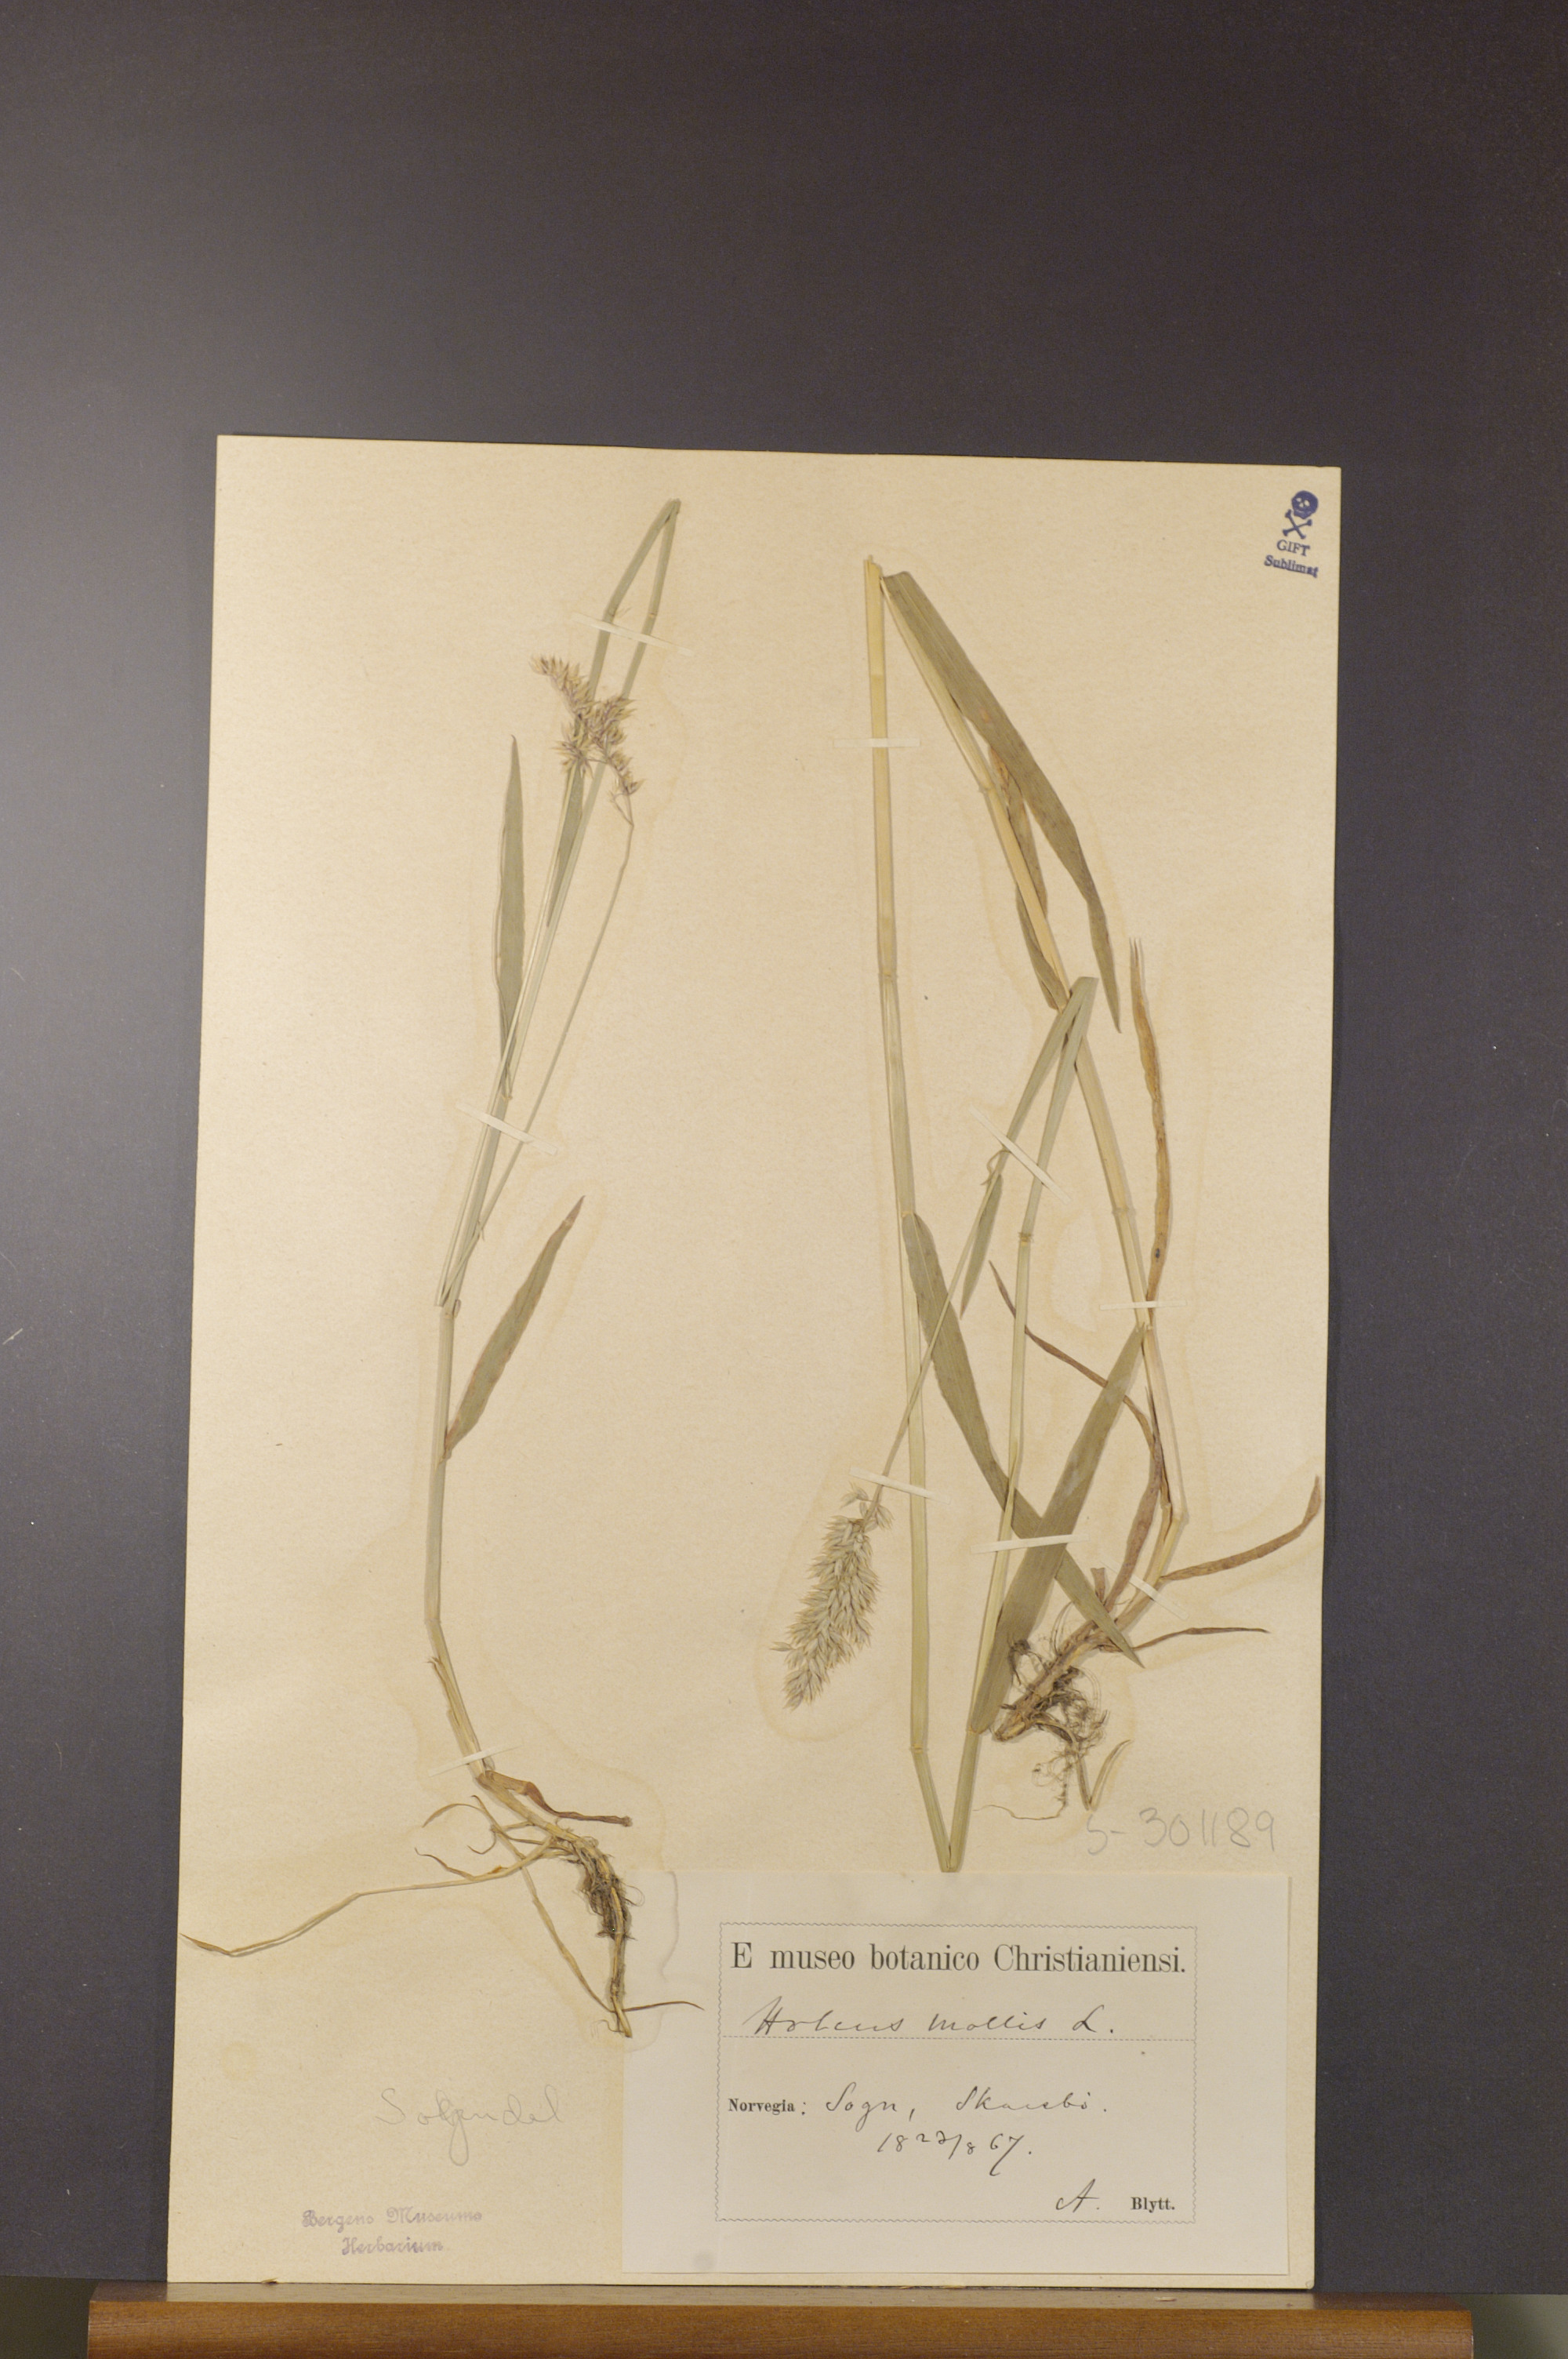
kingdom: Plantae
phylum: Tracheophyta
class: Liliopsida
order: Poales
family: Poaceae
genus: Holcus
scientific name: Holcus mollis
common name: Creeping velvetgrass
